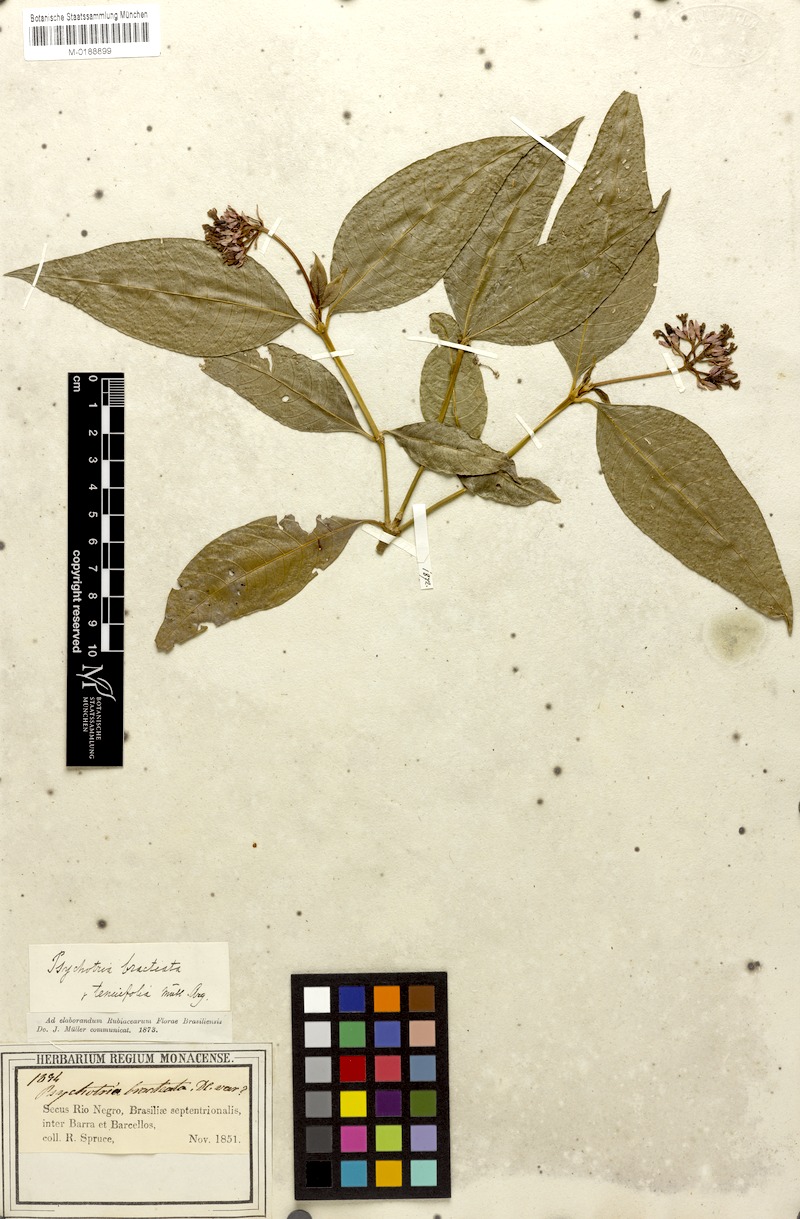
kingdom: Plantae
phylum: Tracheophyta
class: Magnoliopsida
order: Gentianales
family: Rubiaceae
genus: Palicourea
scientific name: Palicourea maguireorum
